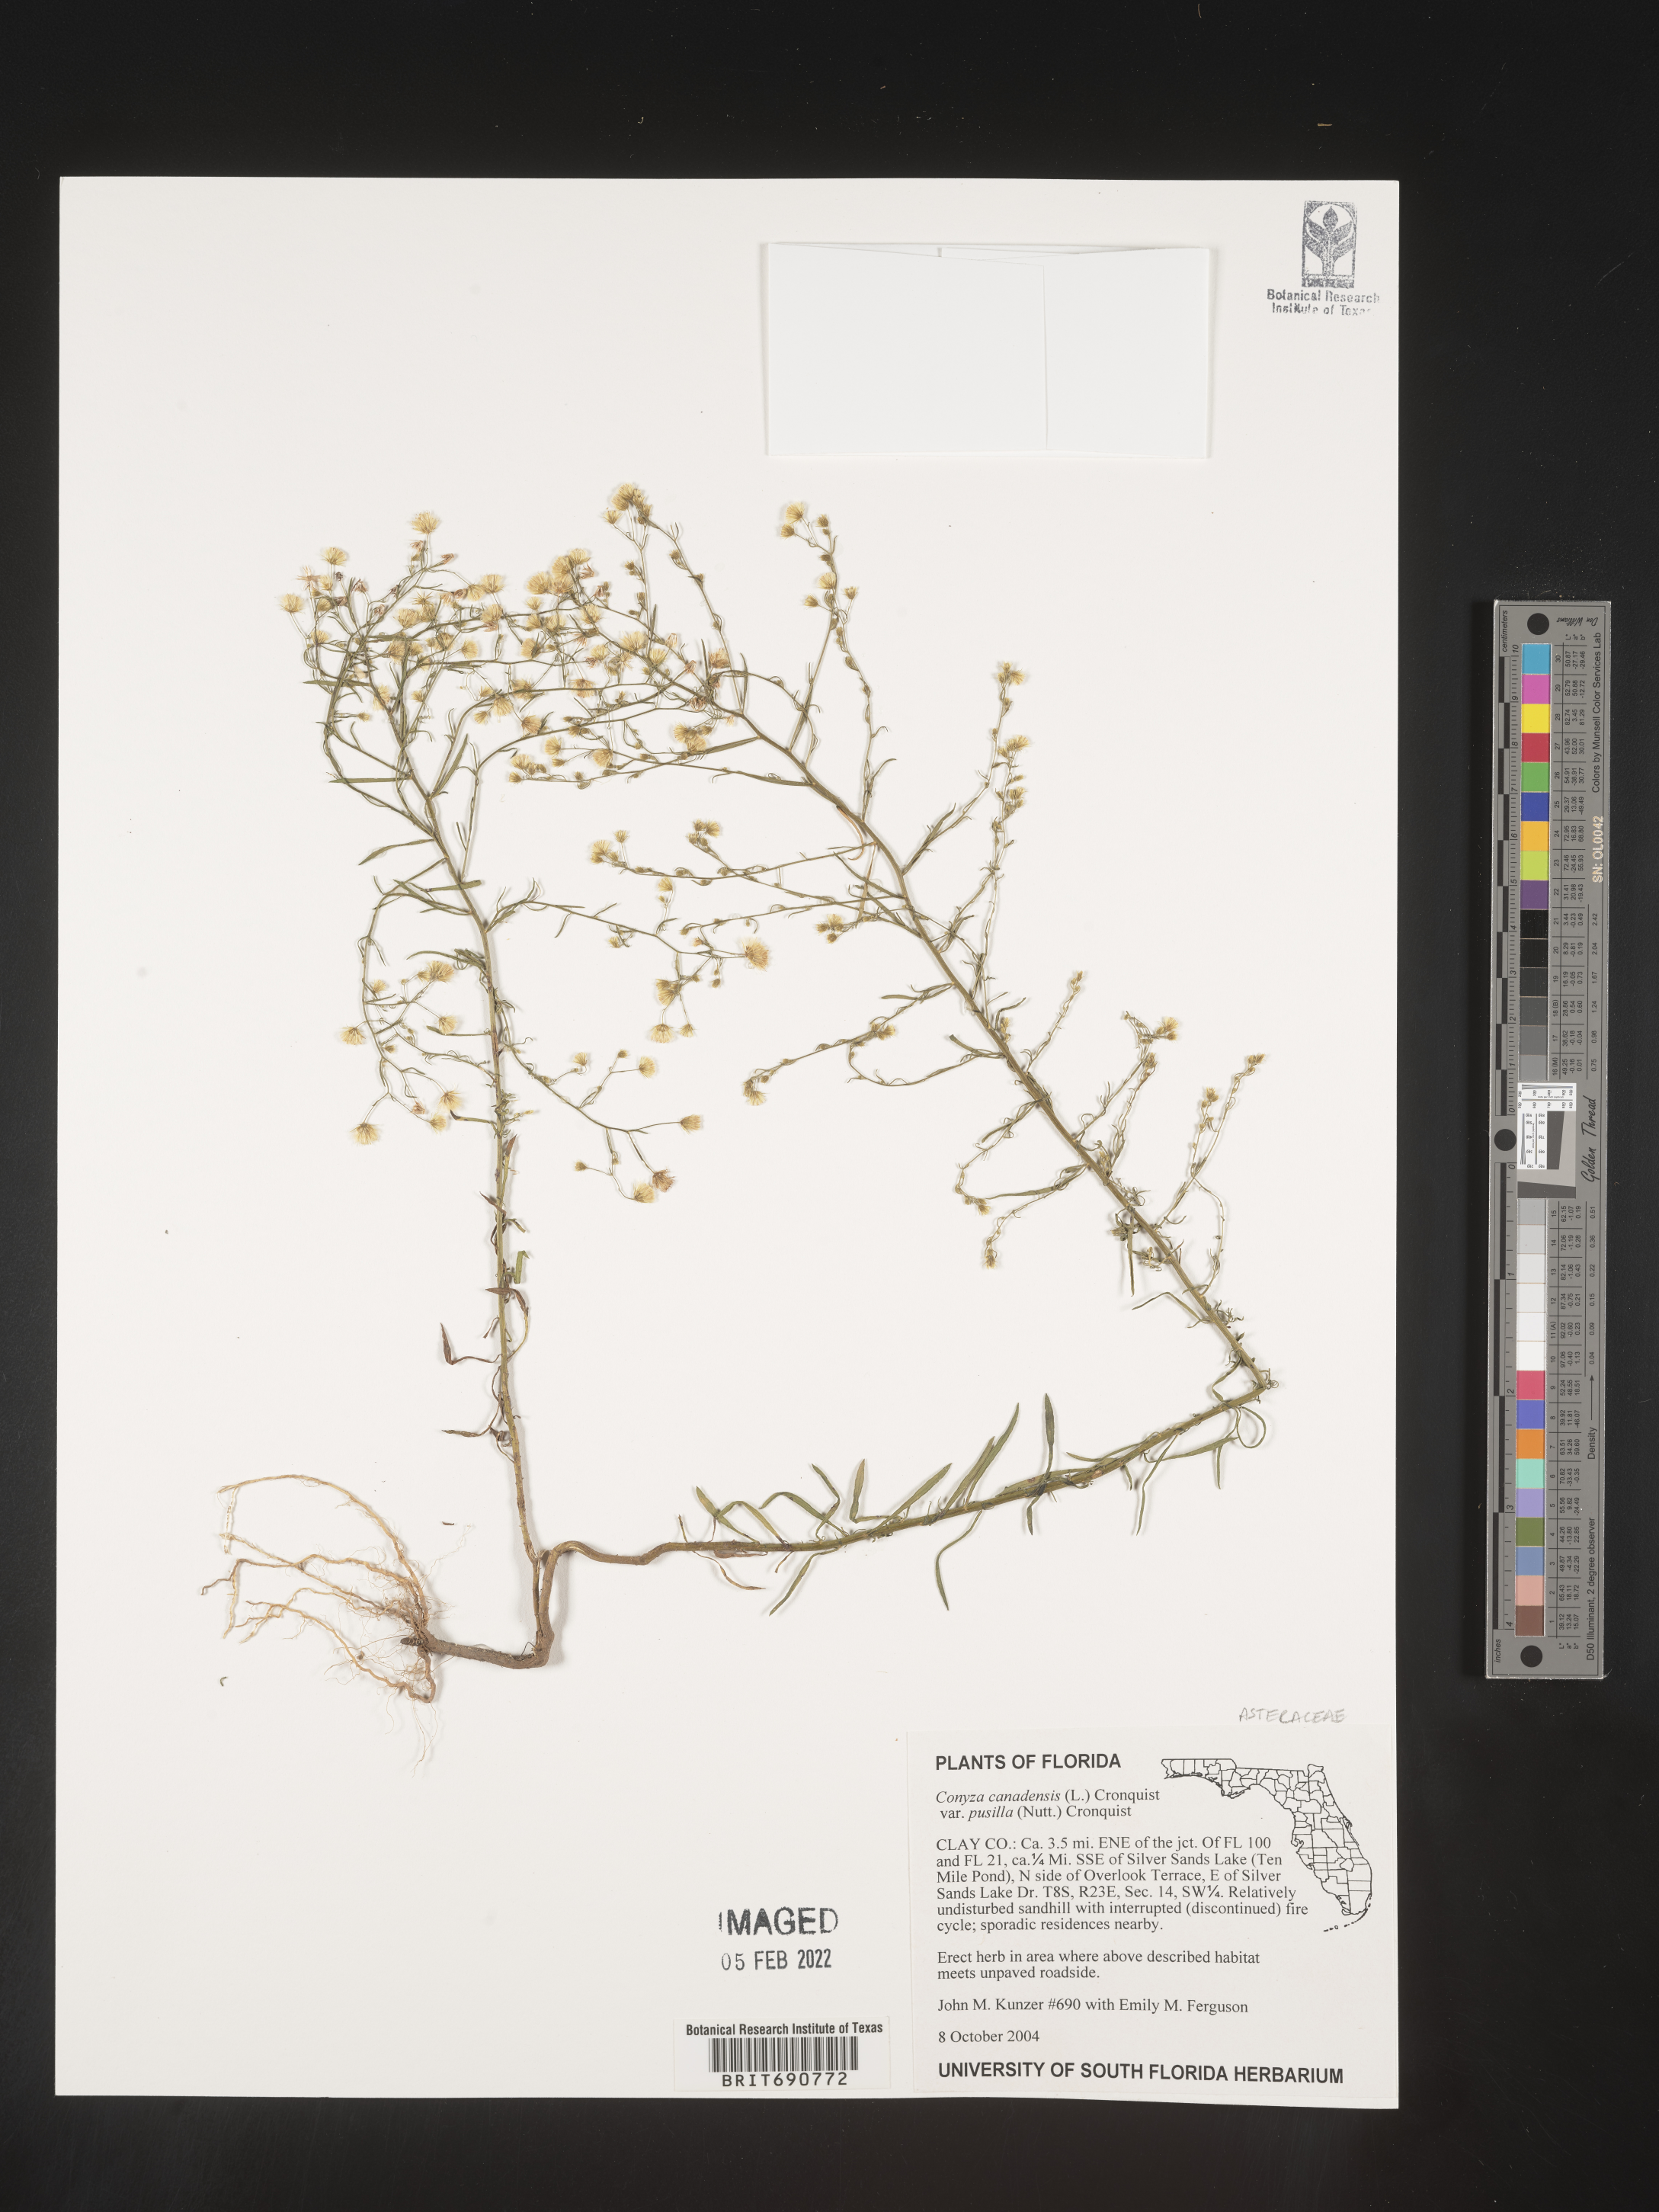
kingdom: Plantae
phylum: Tracheophyta
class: Magnoliopsida
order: Asterales
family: Asteraceae
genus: Erigeron
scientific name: Erigeron canadensis
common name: Canadian fleabane
